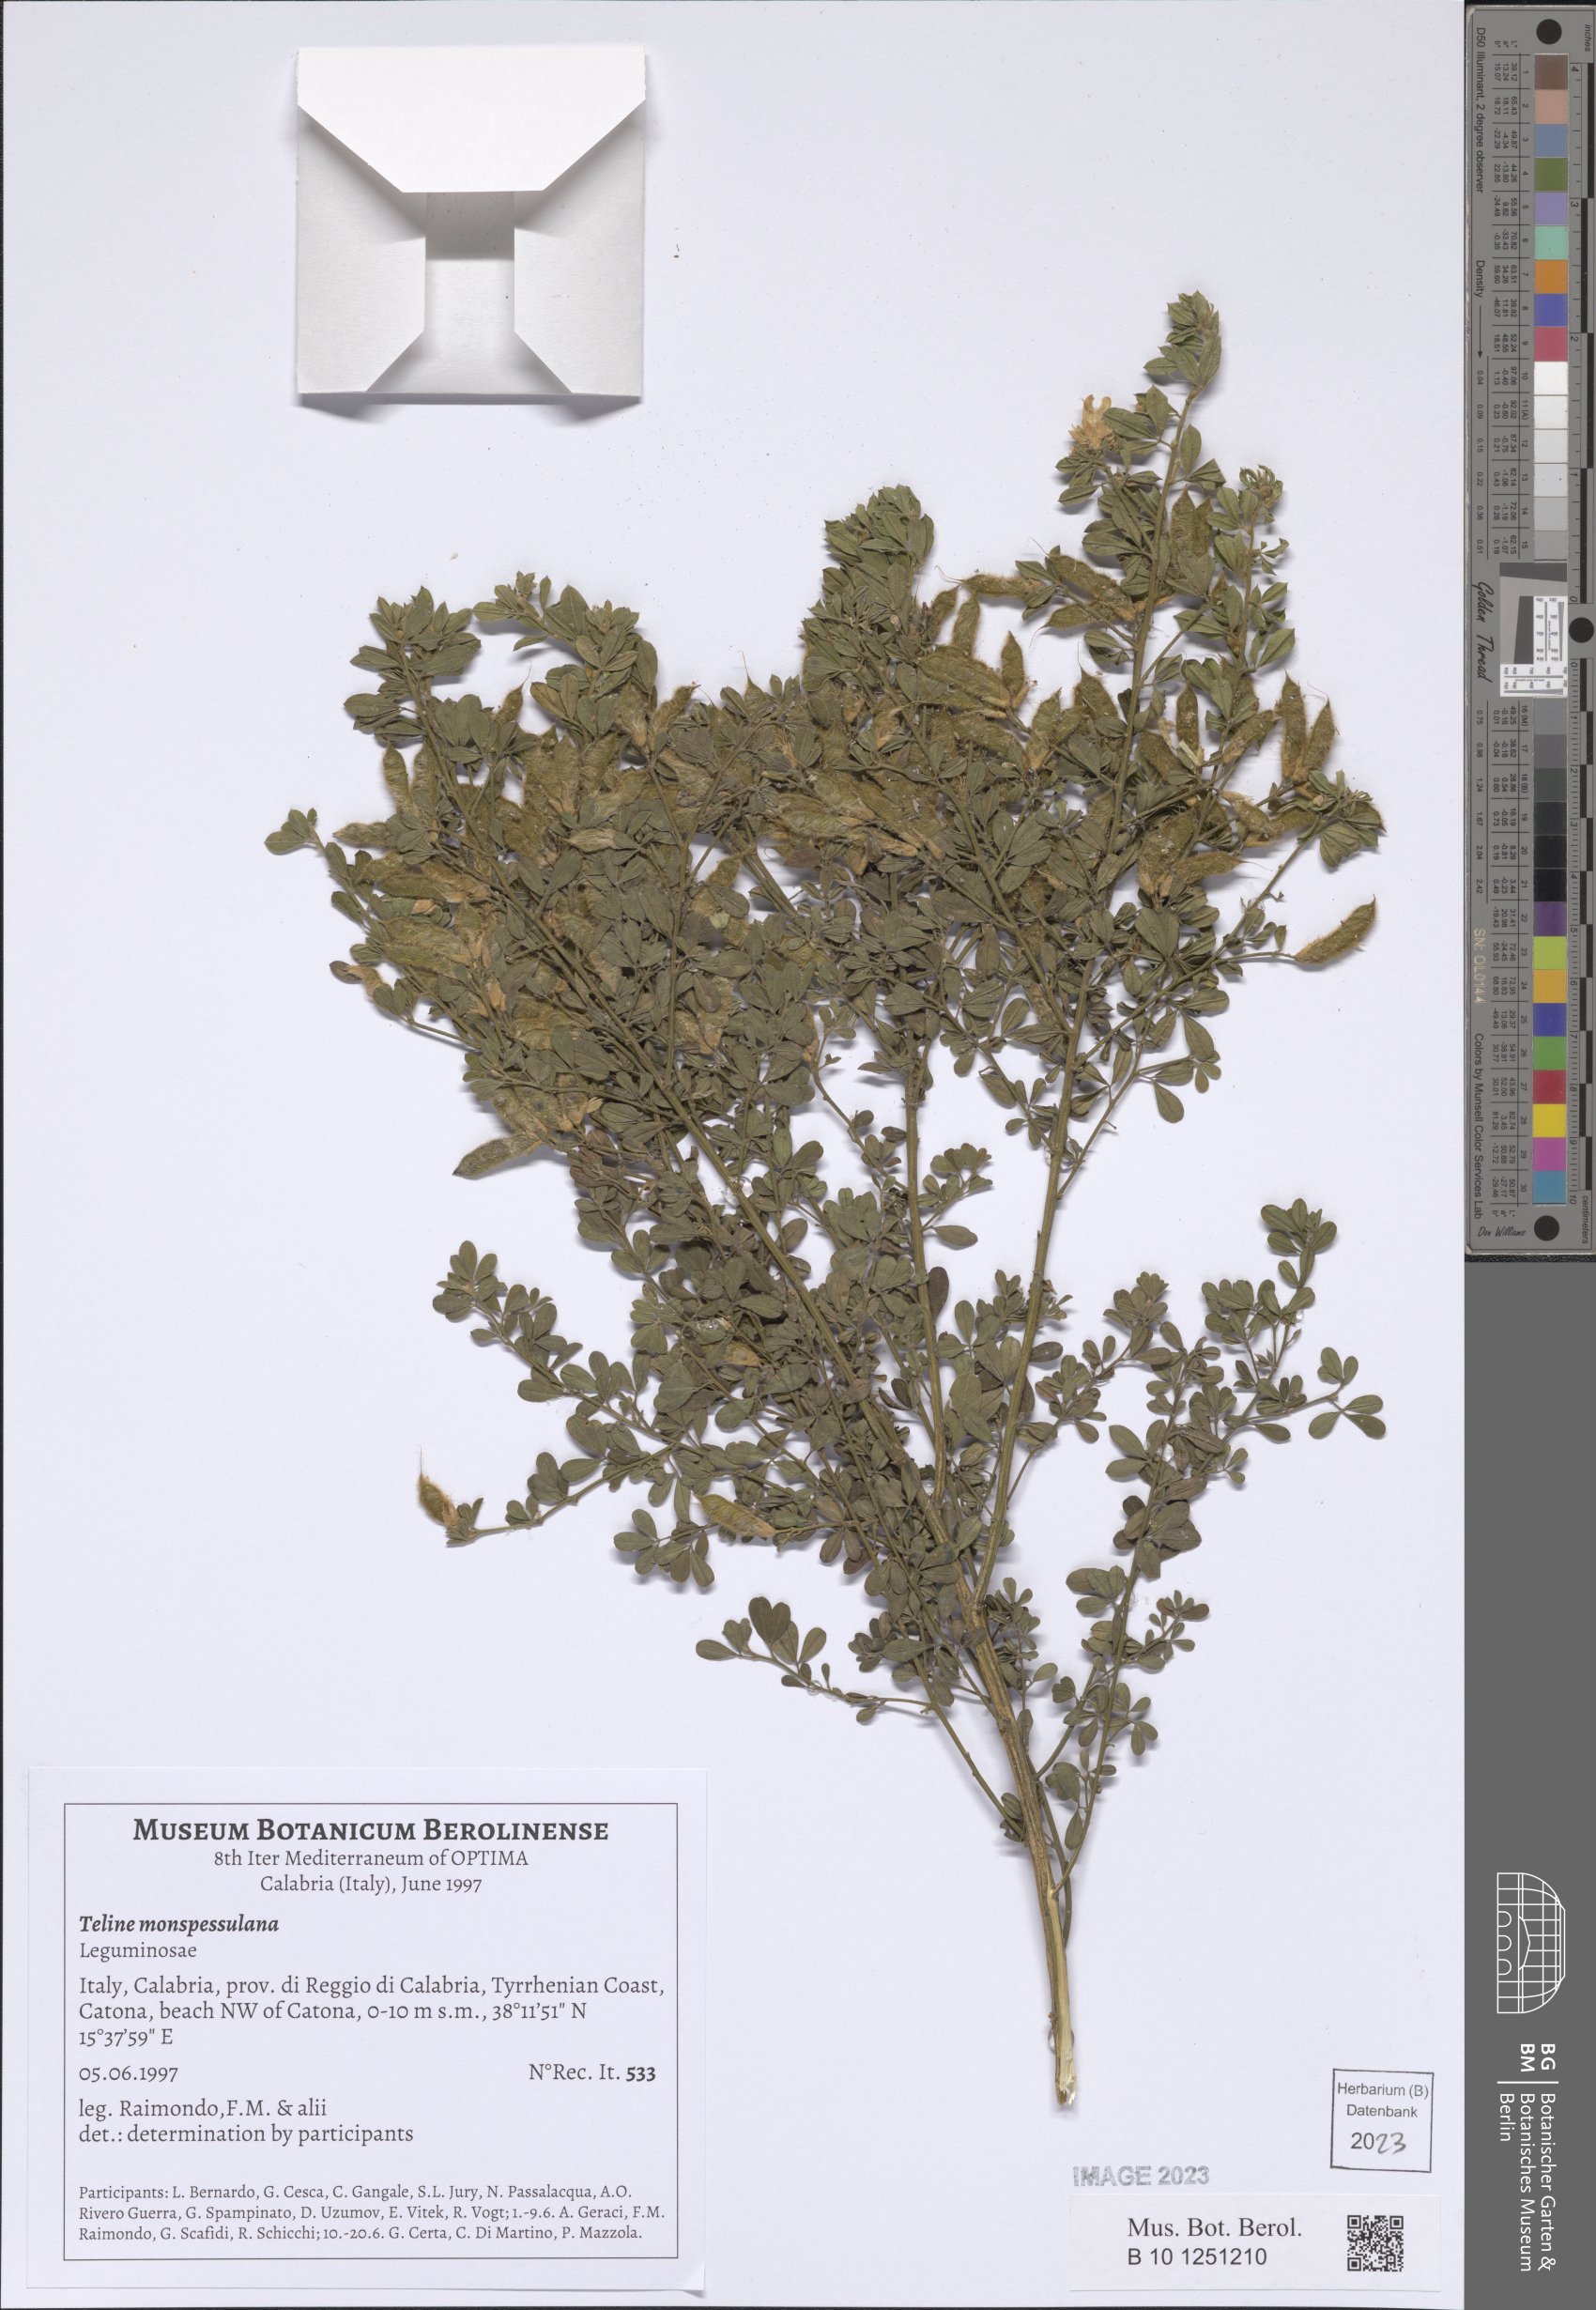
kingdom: Plantae
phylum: Tracheophyta
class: Magnoliopsida
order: Fabales
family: Fabaceae
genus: Genista
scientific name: Genista monspessulana
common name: Montpellier broom
